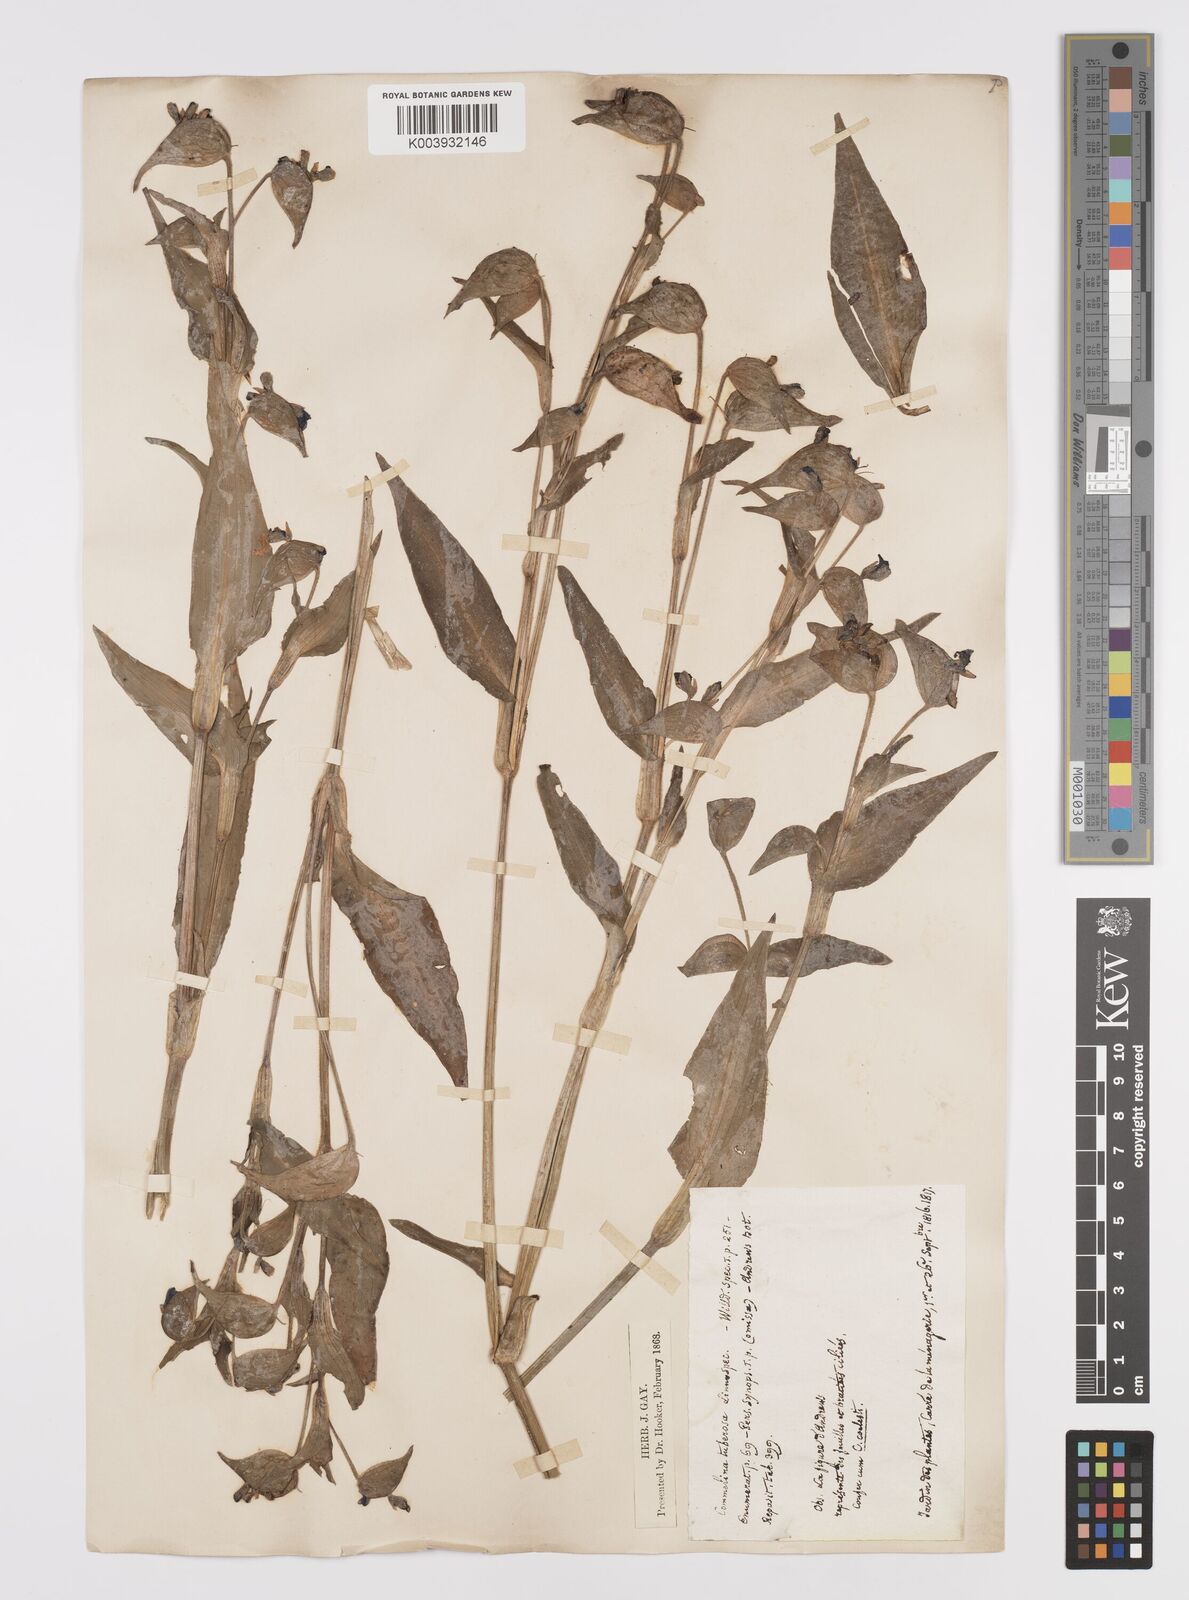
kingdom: Plantae
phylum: Tracheophyta
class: Liliopsida
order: Commelinales
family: Commelinaceae
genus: Commelina
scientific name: Commelina tuberosa
